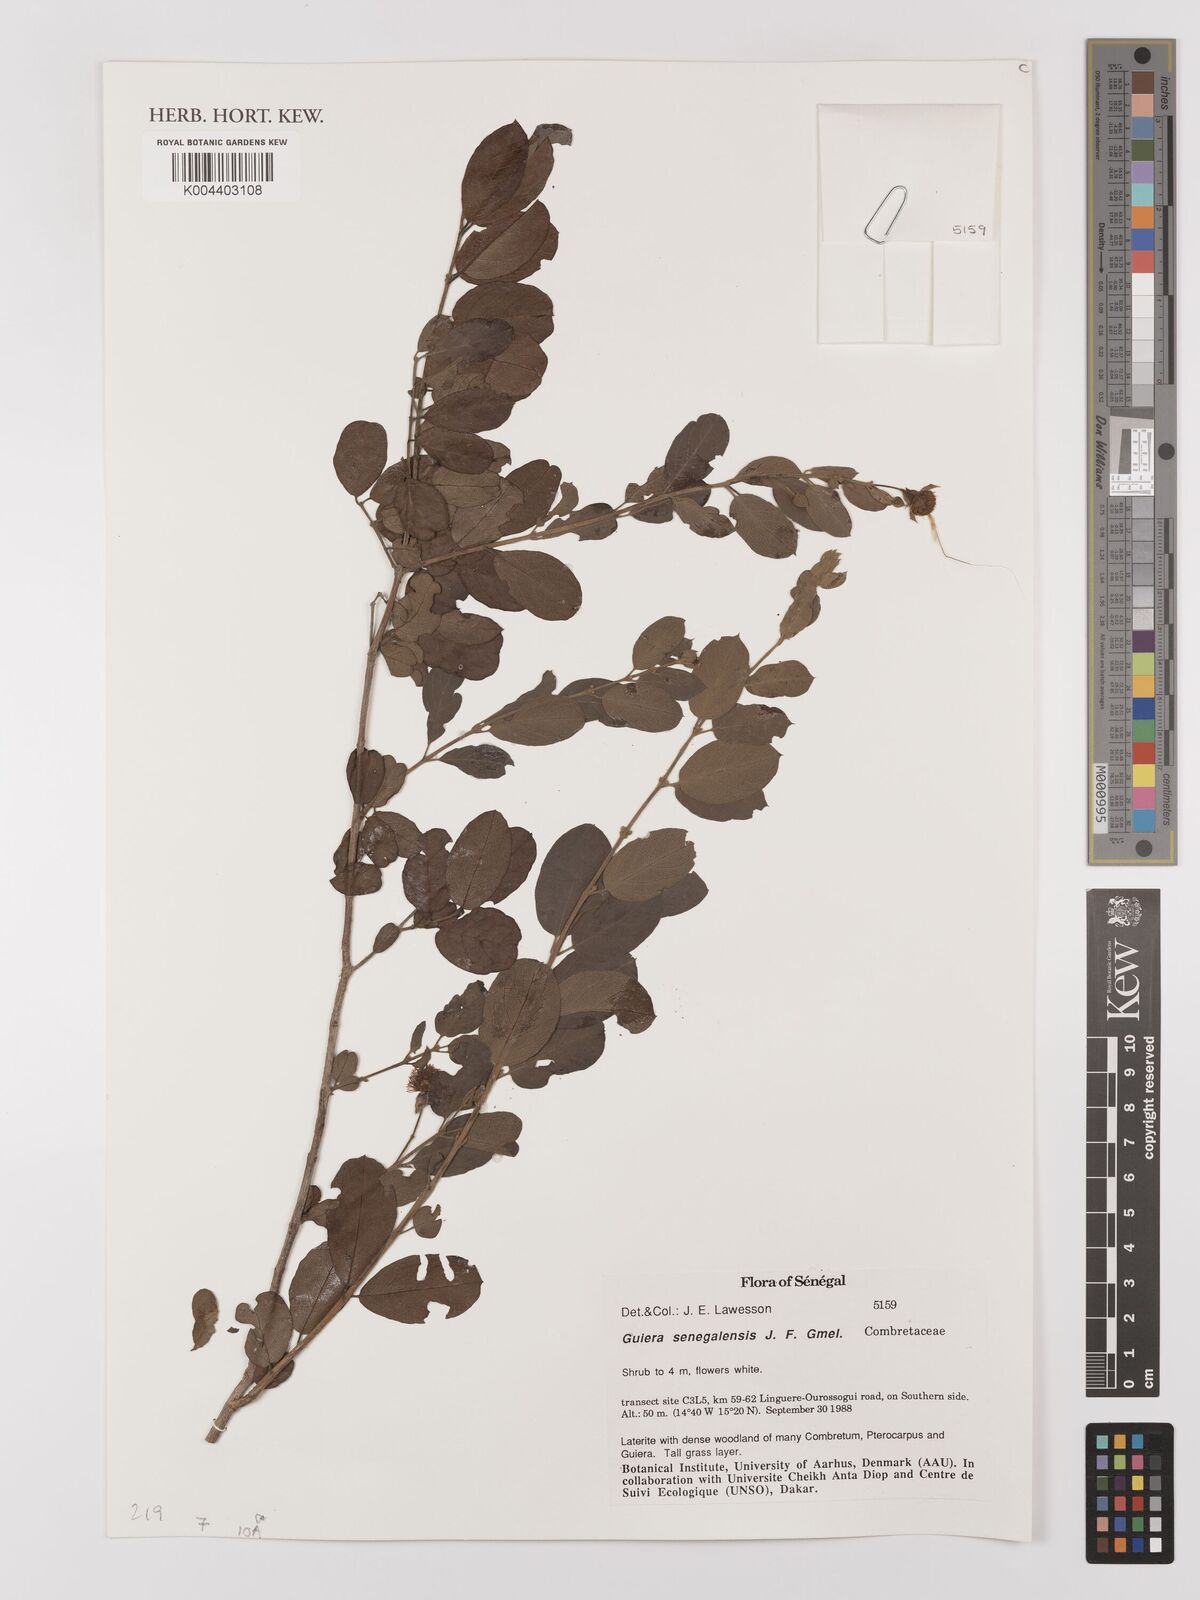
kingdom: Plantae
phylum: Tracheophyta
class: Magnoliopsida
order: Myrtales
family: Combretaceae
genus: Guiera
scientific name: Guiera senegalensis
